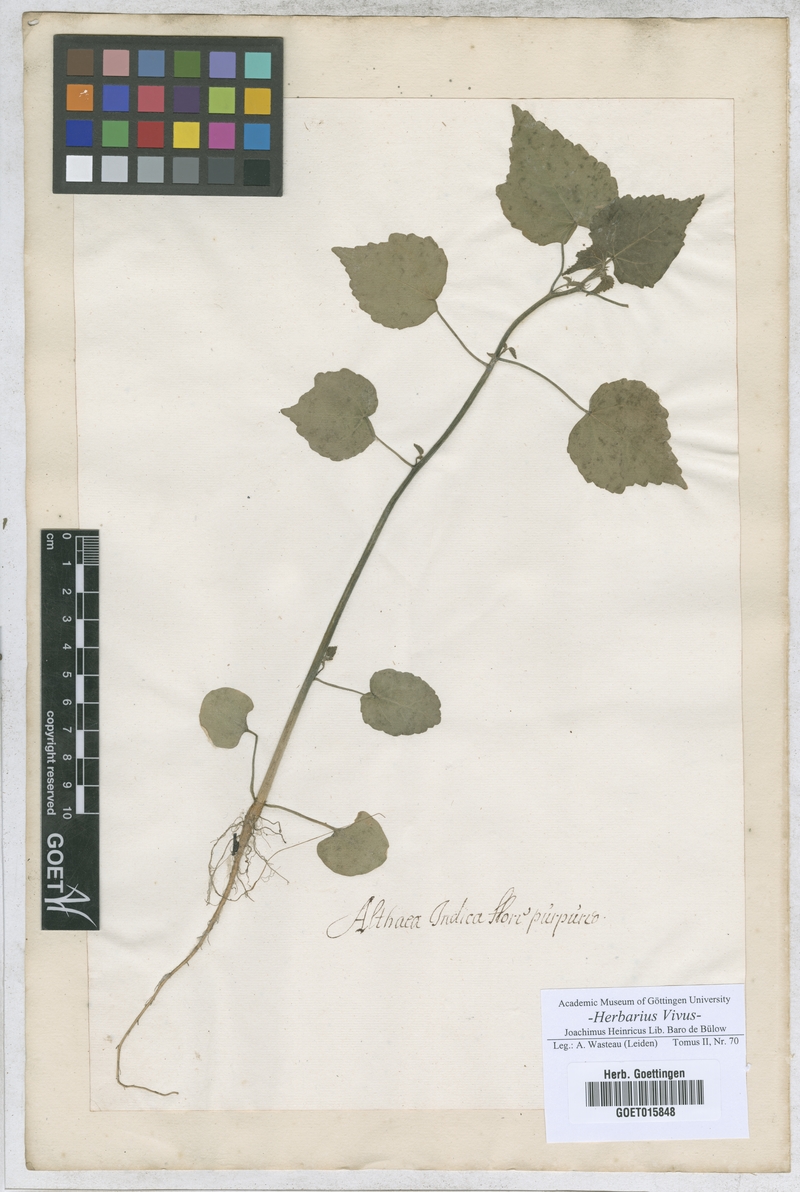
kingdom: Plantae
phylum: Tracheophyta
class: Magnoliopsida
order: Malvales
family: Malvaceae
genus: Althaea
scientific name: Althaea
